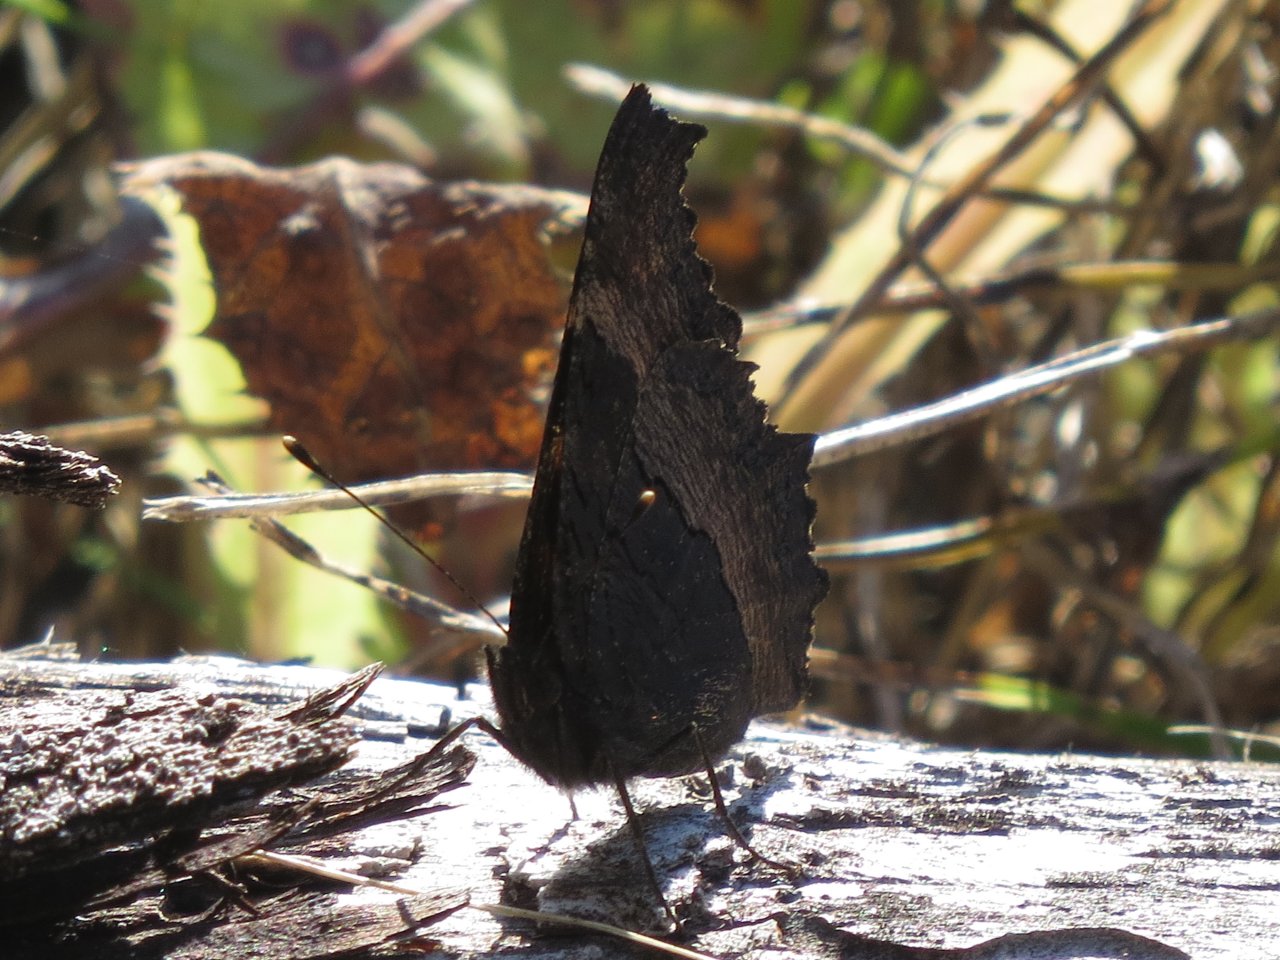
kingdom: Animalia
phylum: Arthropoda
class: Insecta
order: Lepidoptera
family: Nymphalidae
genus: Aglais
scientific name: Aglais milberti
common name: Milbert's Tortoiseshell
